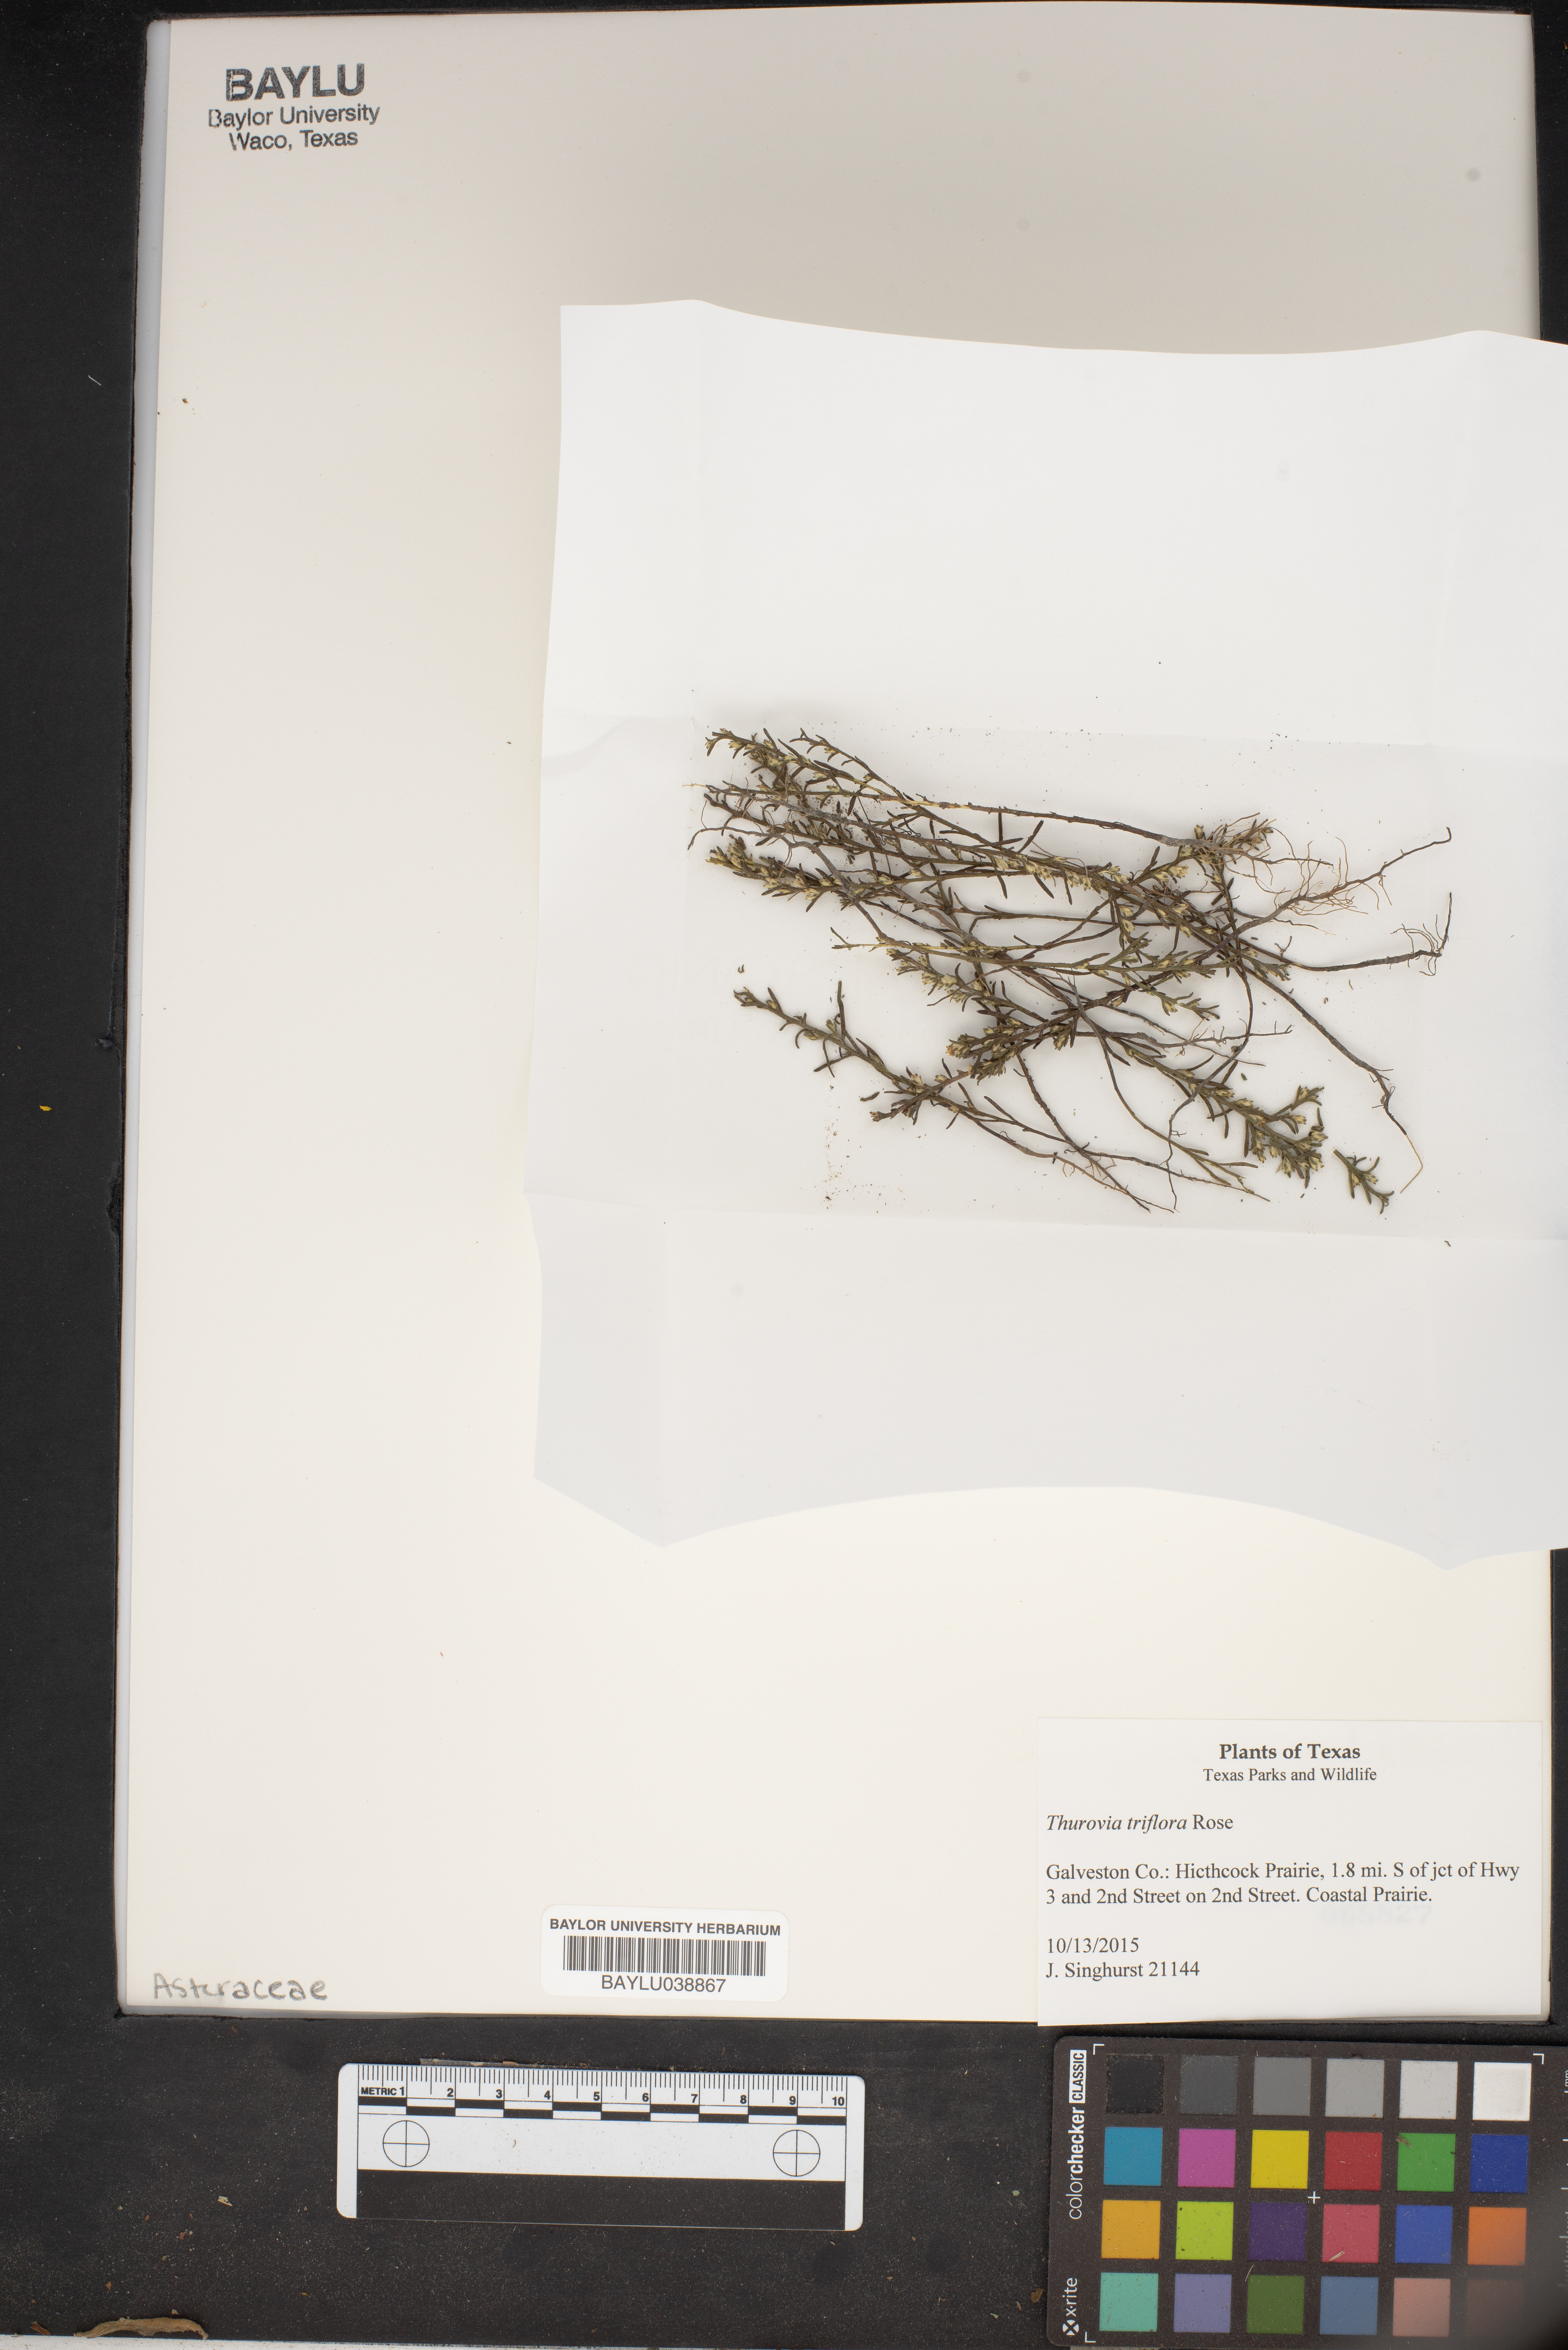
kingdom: Plantae
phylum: Tracheophyta
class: Magnoliopsida
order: Asterales
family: Asteraceae
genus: Thurovia
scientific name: Thurovia triflora
